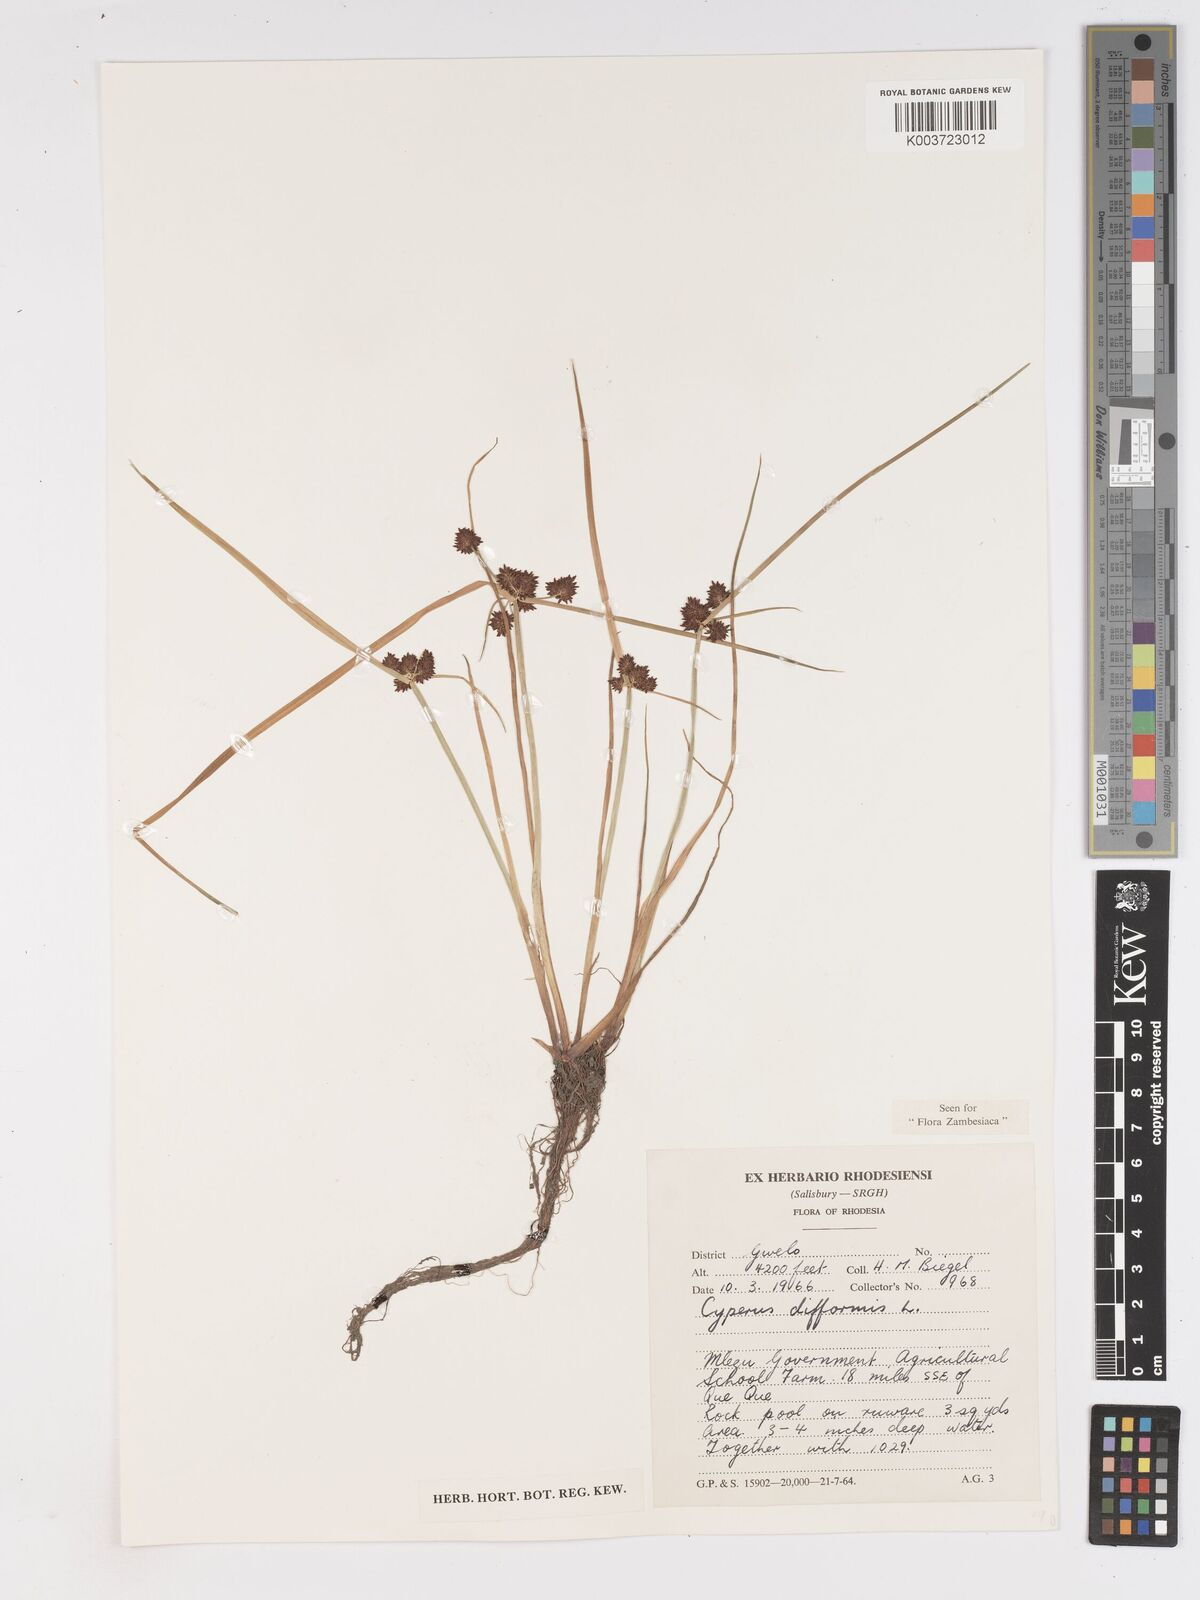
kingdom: Plantae
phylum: Tracheophyta
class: Liliopsida
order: Poales
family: Cyperaceae
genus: Cyperus
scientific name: Cyperus difformis
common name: Variable flatsedge
